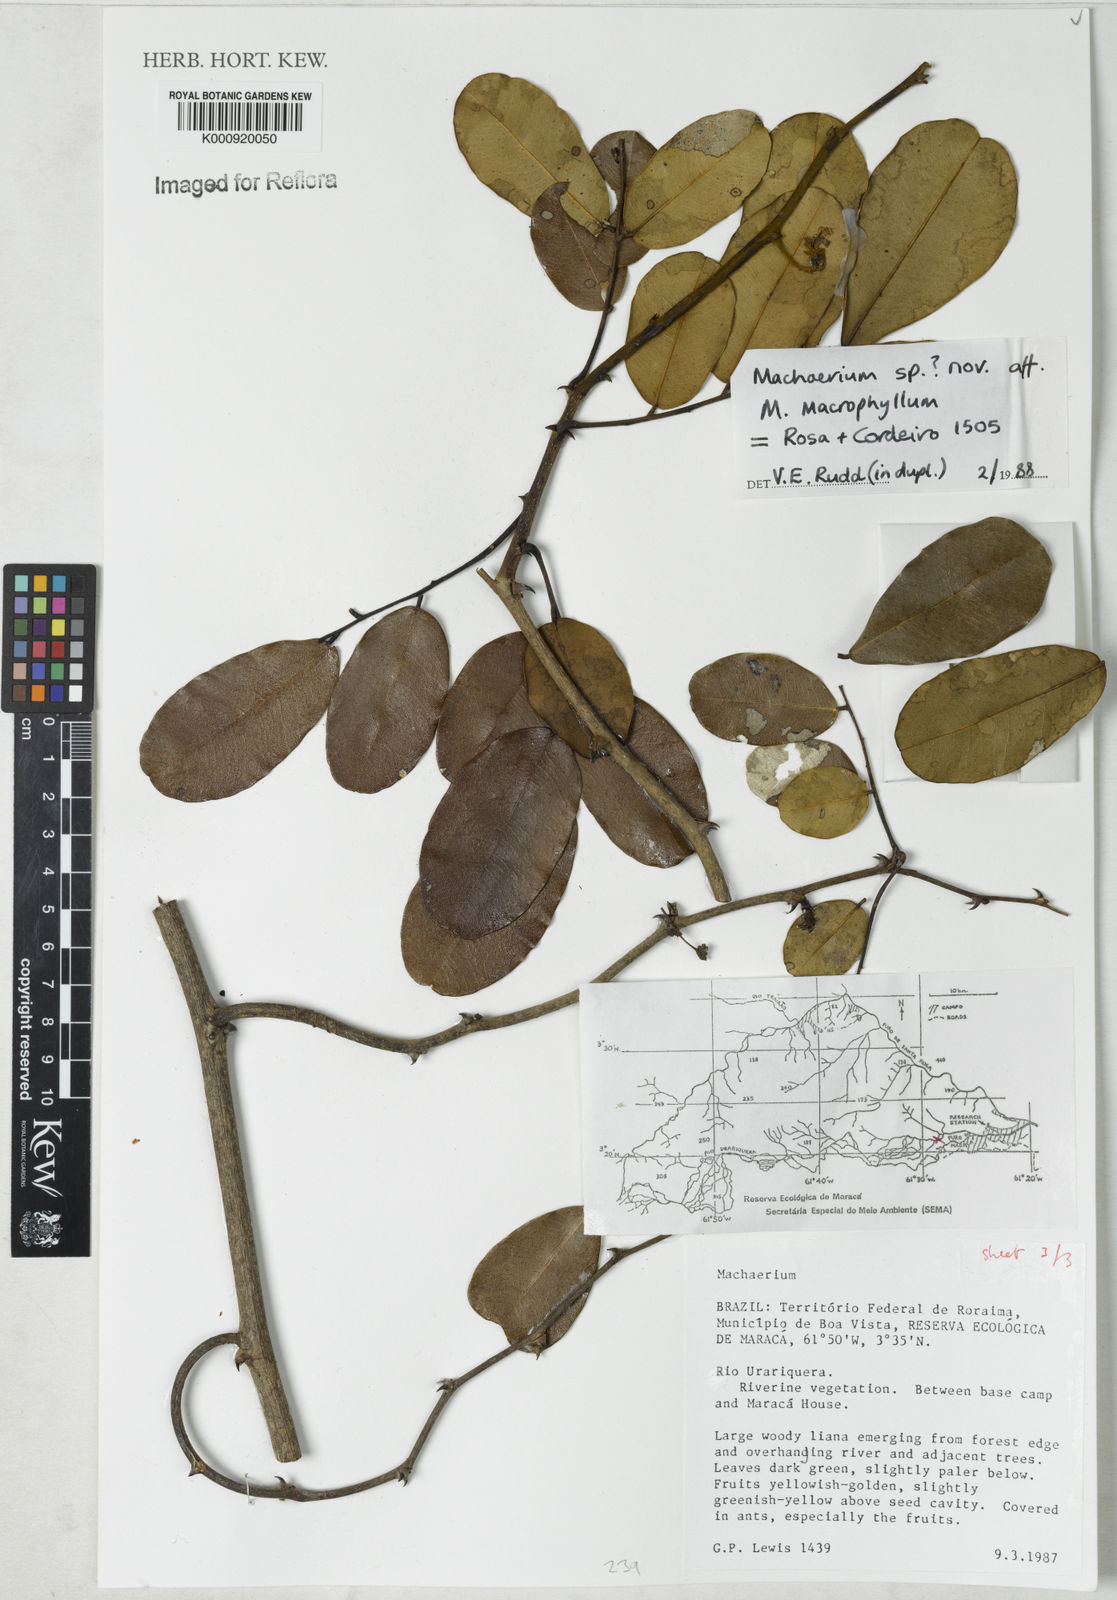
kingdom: Plantae
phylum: Tracheophyta
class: Magnoliopsida
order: Fabales
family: Fabaceae
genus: Machaerium
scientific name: Machaerium
